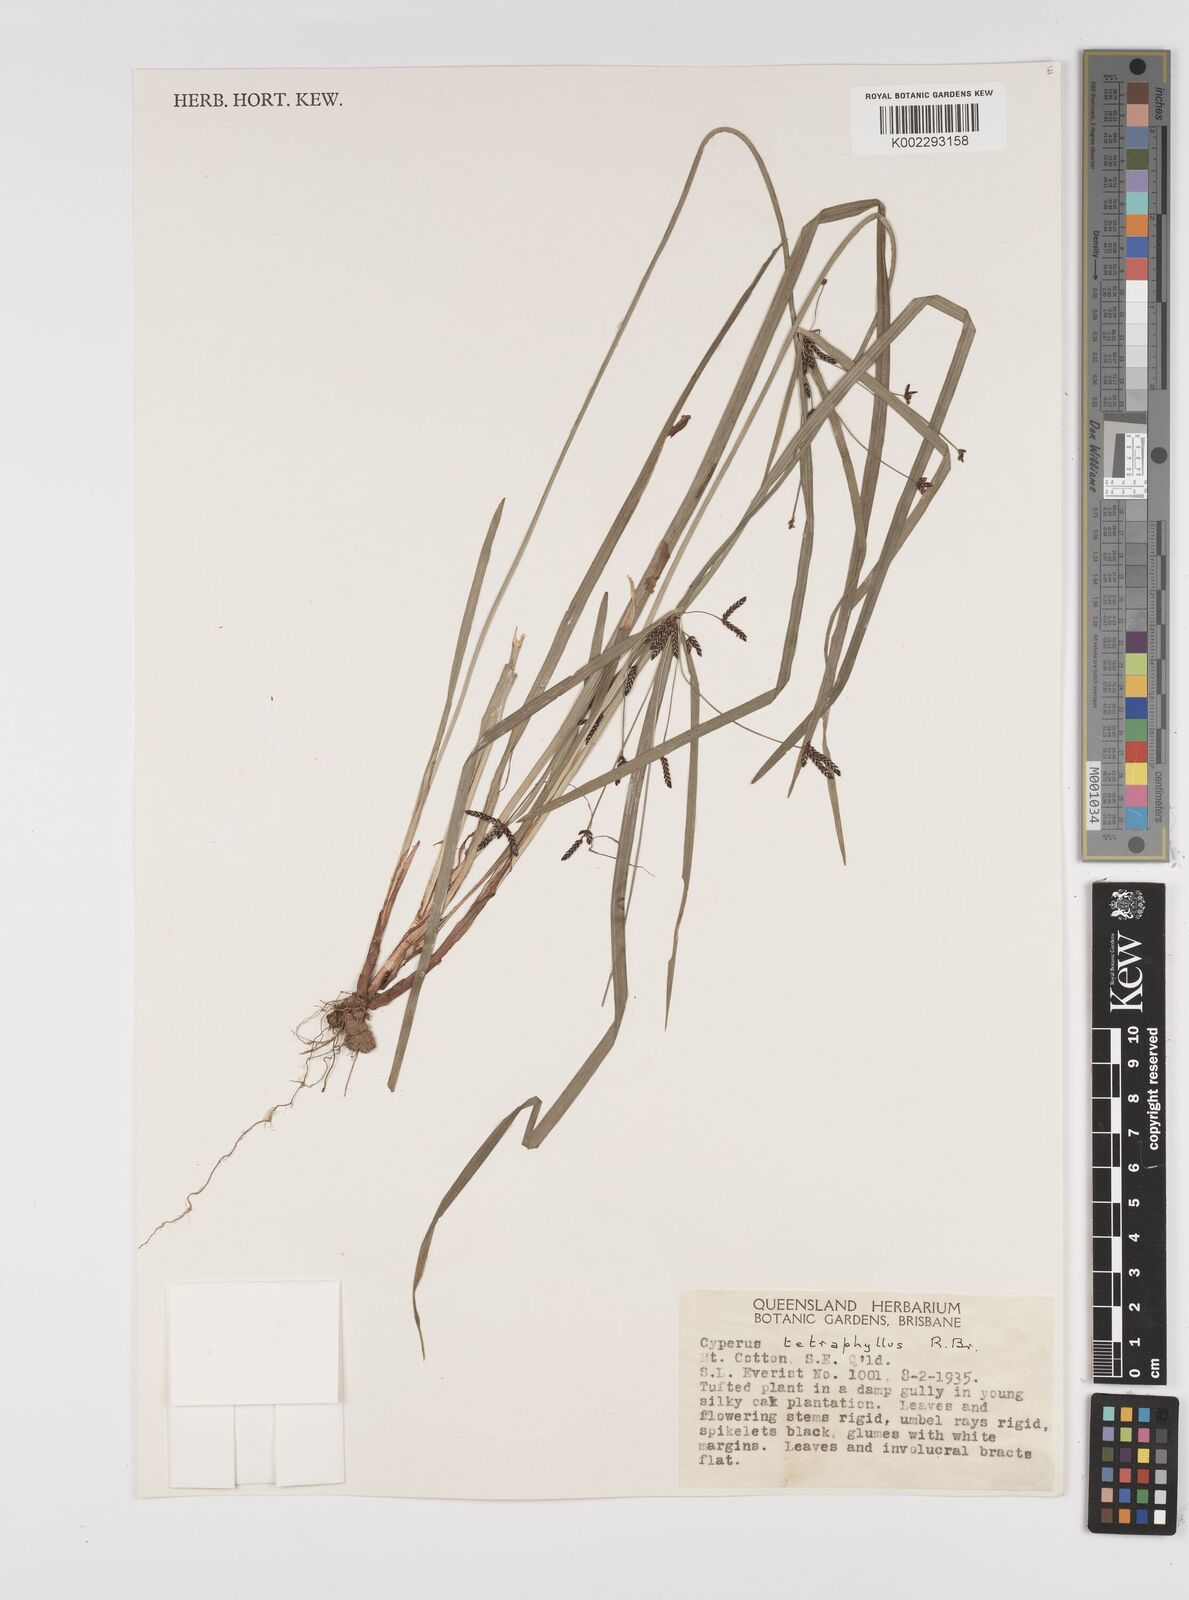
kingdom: Plantae
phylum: Tracheophyta
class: Liliopsida
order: Poales
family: Cyperaceae
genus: Cyperus
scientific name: Cyperus tetraphyllus
